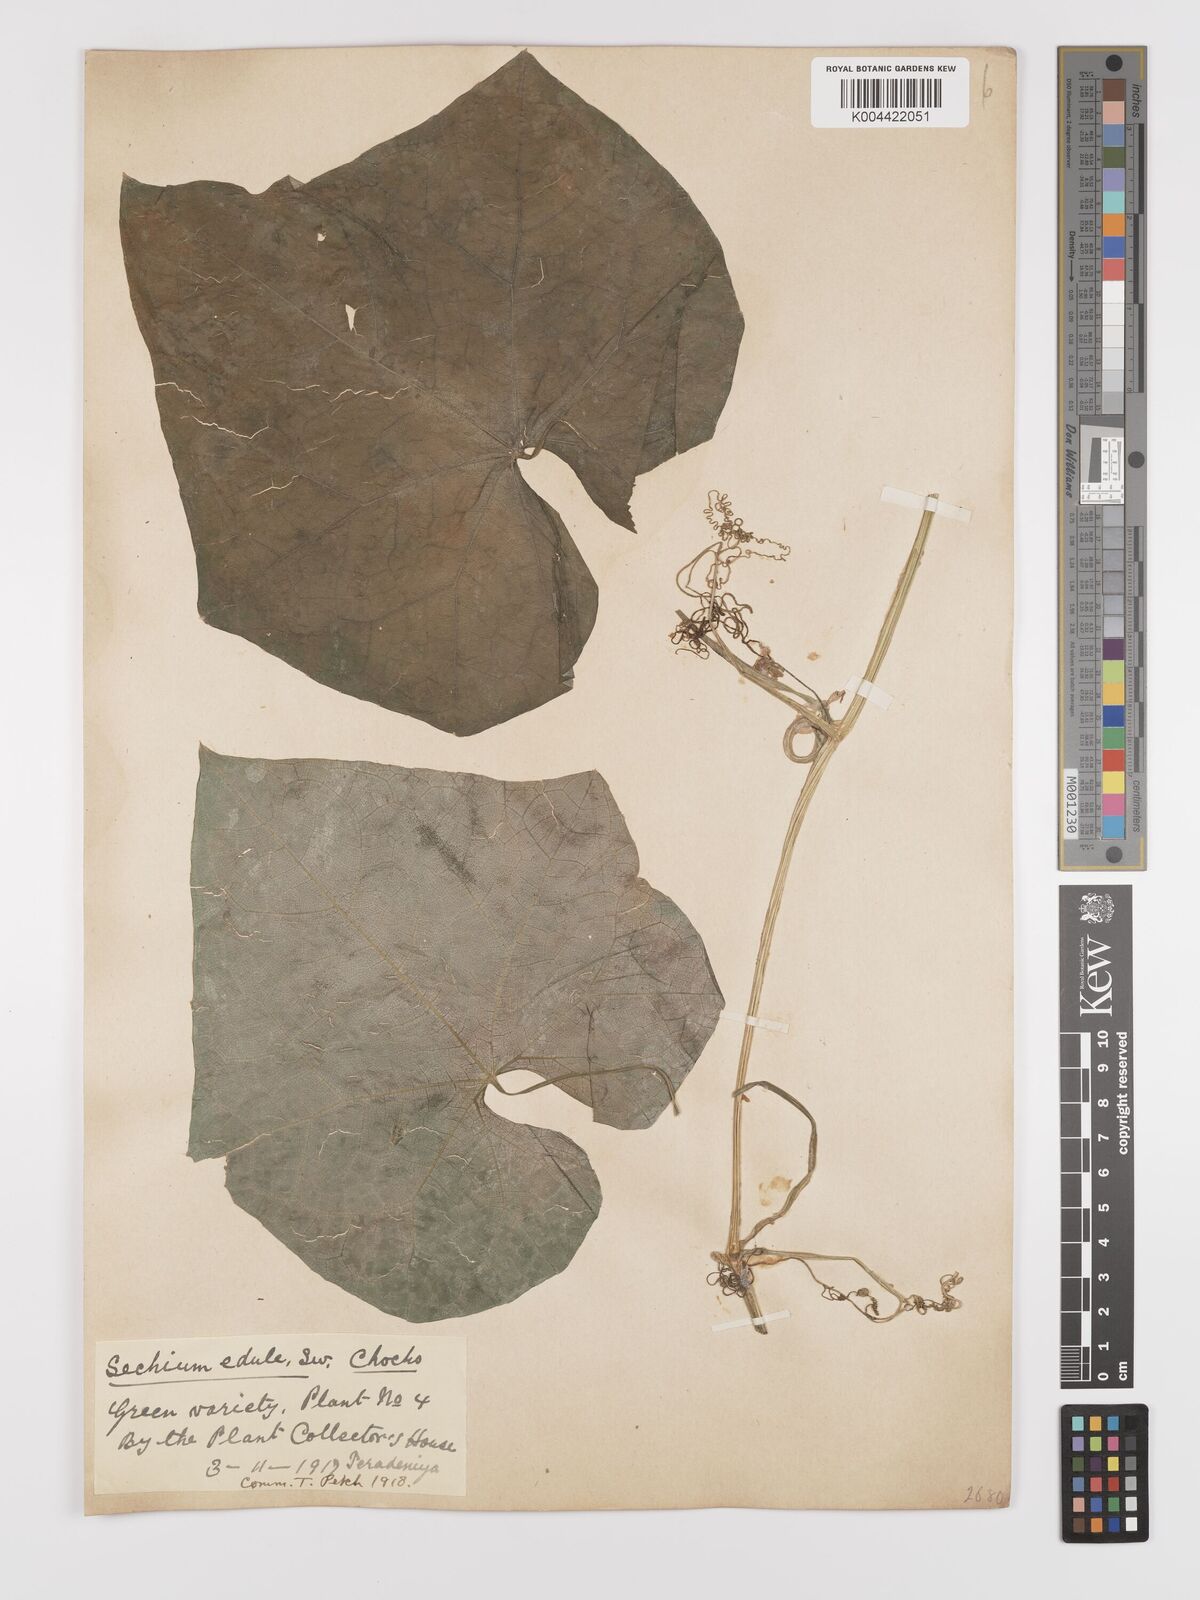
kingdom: Plantae
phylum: Tracheophyta
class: Magnoliopsida
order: Cucurbitales
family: Cucurbitaceae
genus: Sechium
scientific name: Sechium edule
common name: Chayote
